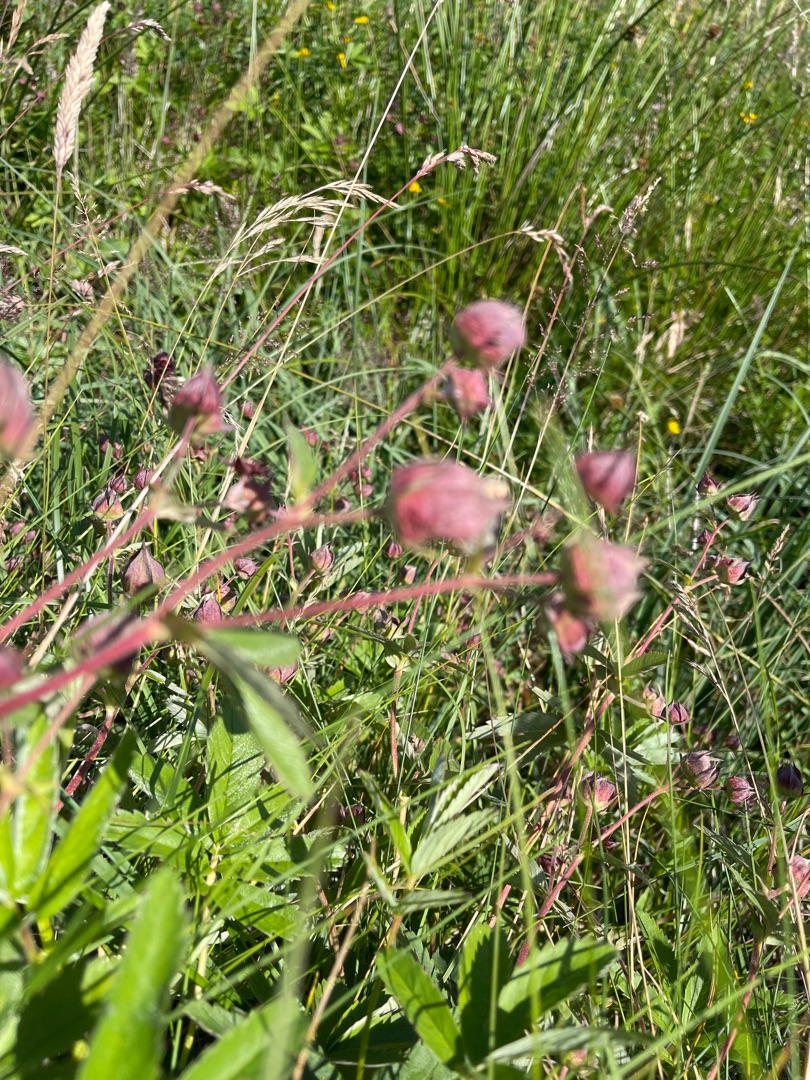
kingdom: Plantae
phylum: Tracheophyta
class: Magnoliopsida
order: Rosales
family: Rosaceae
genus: Comarum
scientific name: Comarum palustre
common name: Kragefod
